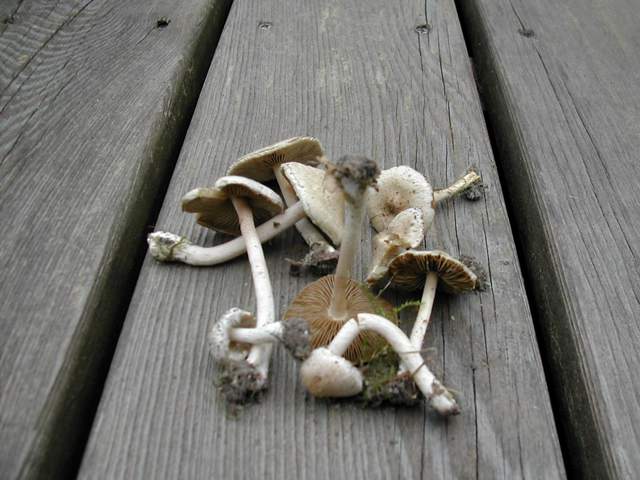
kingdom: Fungi
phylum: Basidiomycota
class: Agaricomycetes
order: Agaricales
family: Inocybaceae
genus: Inocybe
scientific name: Inocybe sindonia
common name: bleg trævlhat
